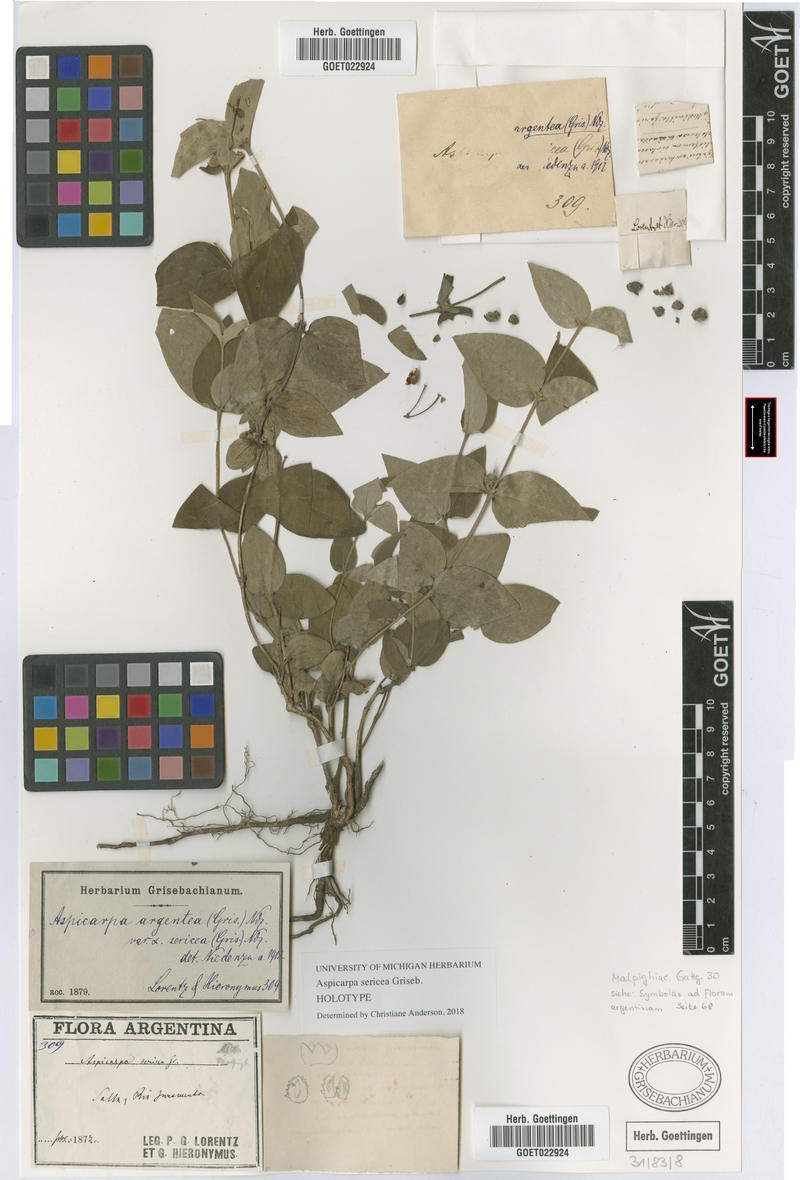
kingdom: Plantae
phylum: Tracheophyta
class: Magnoliopsida
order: Malpighiales
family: Malpighiaceae
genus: Aspicarpa
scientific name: Aspicarpa sericea
